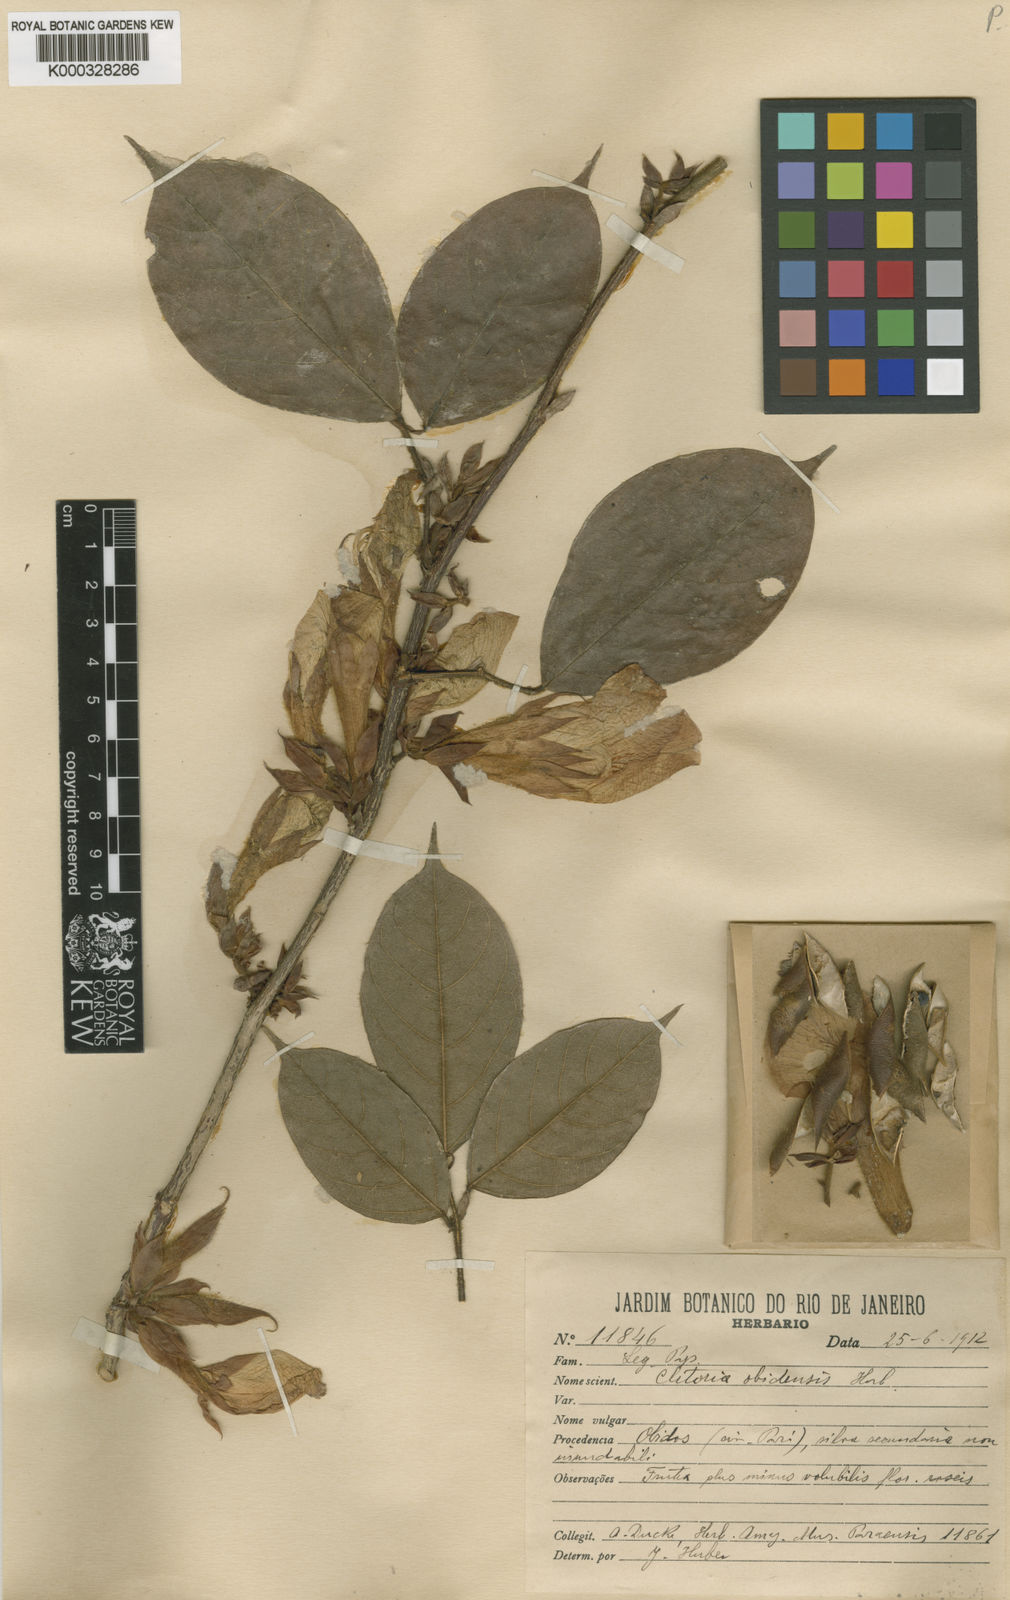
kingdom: Plantae
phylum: Tracheophyta
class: Magnoliopsida
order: Fabales
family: Fabaceae
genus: Clitoria
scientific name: Clitoria obidensis
